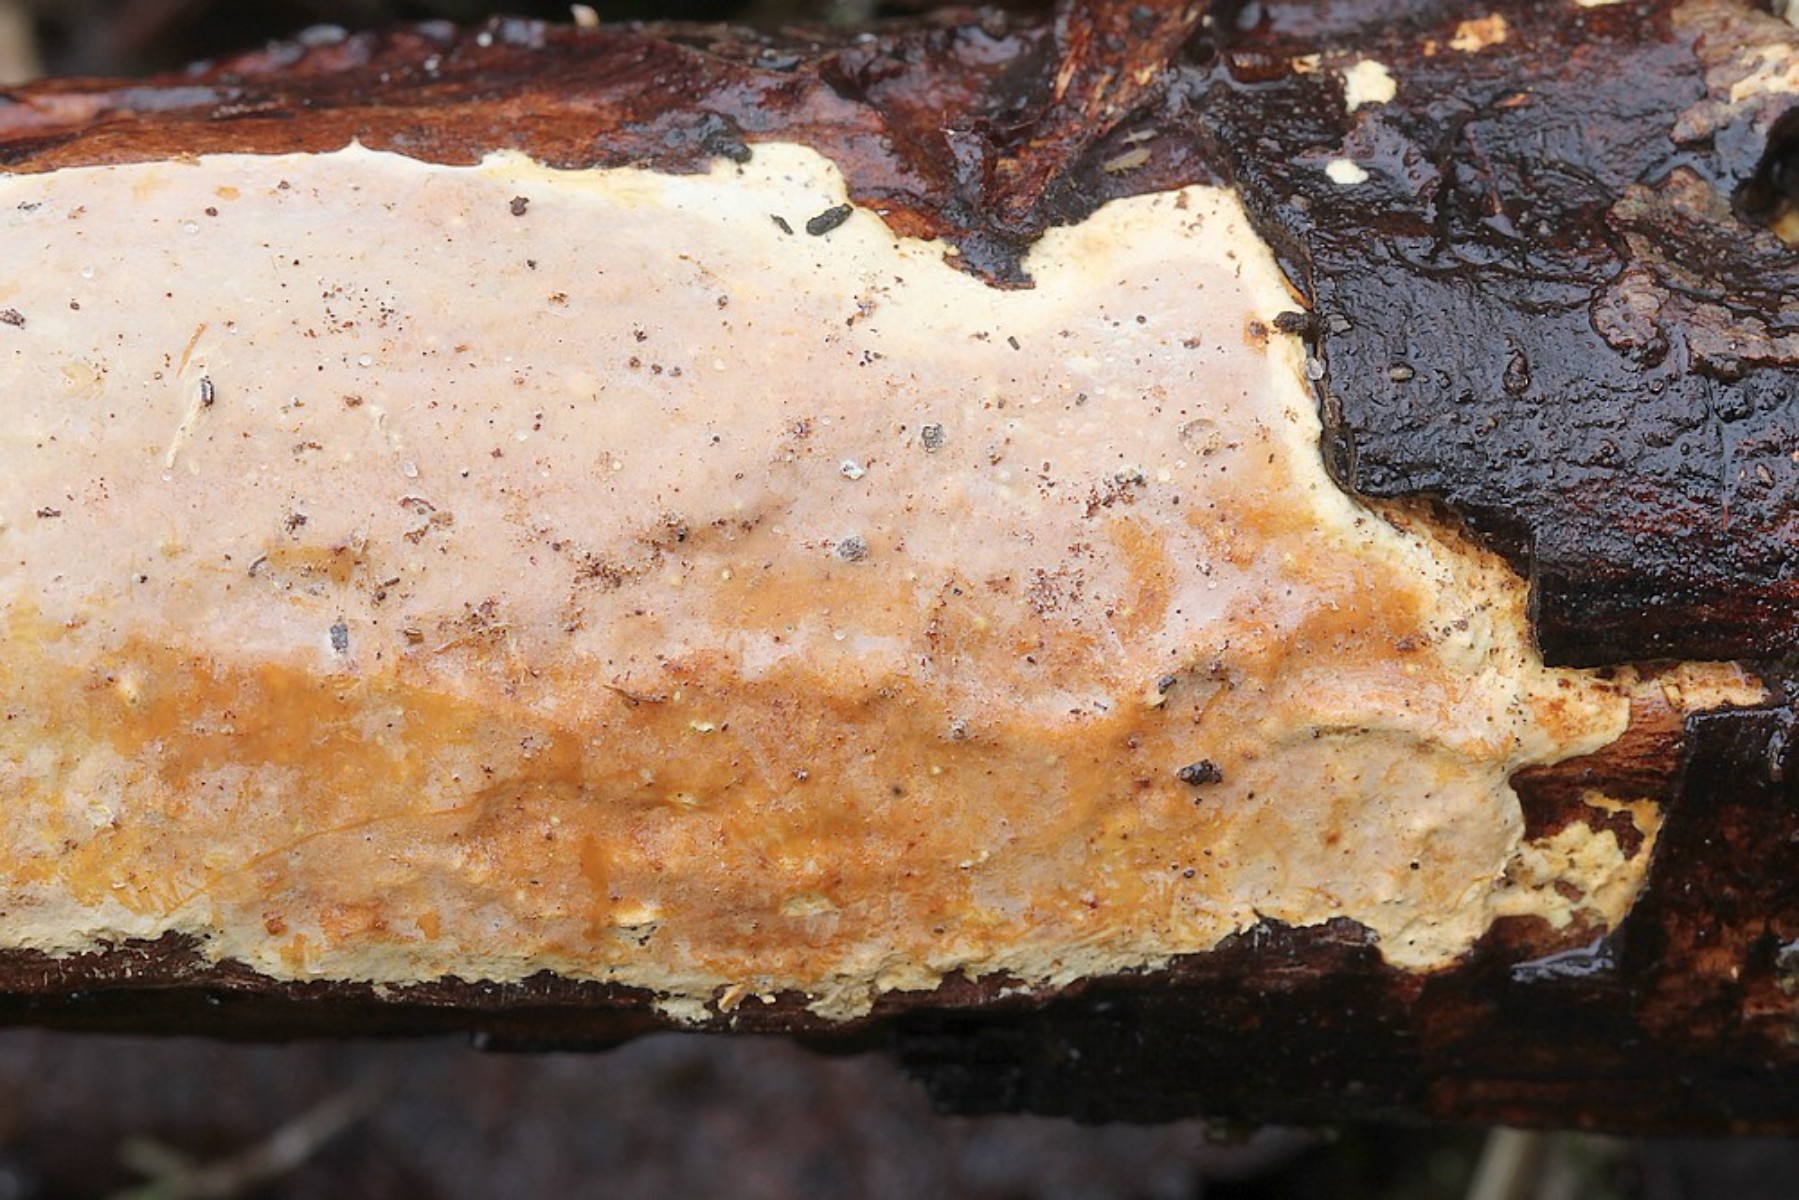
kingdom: Fungi
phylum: Basidiomycota
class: Agaricomycetes
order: Russulales
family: Peniophoraceae
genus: Scytinostroma
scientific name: Scytinostroma hemidichophyticum
